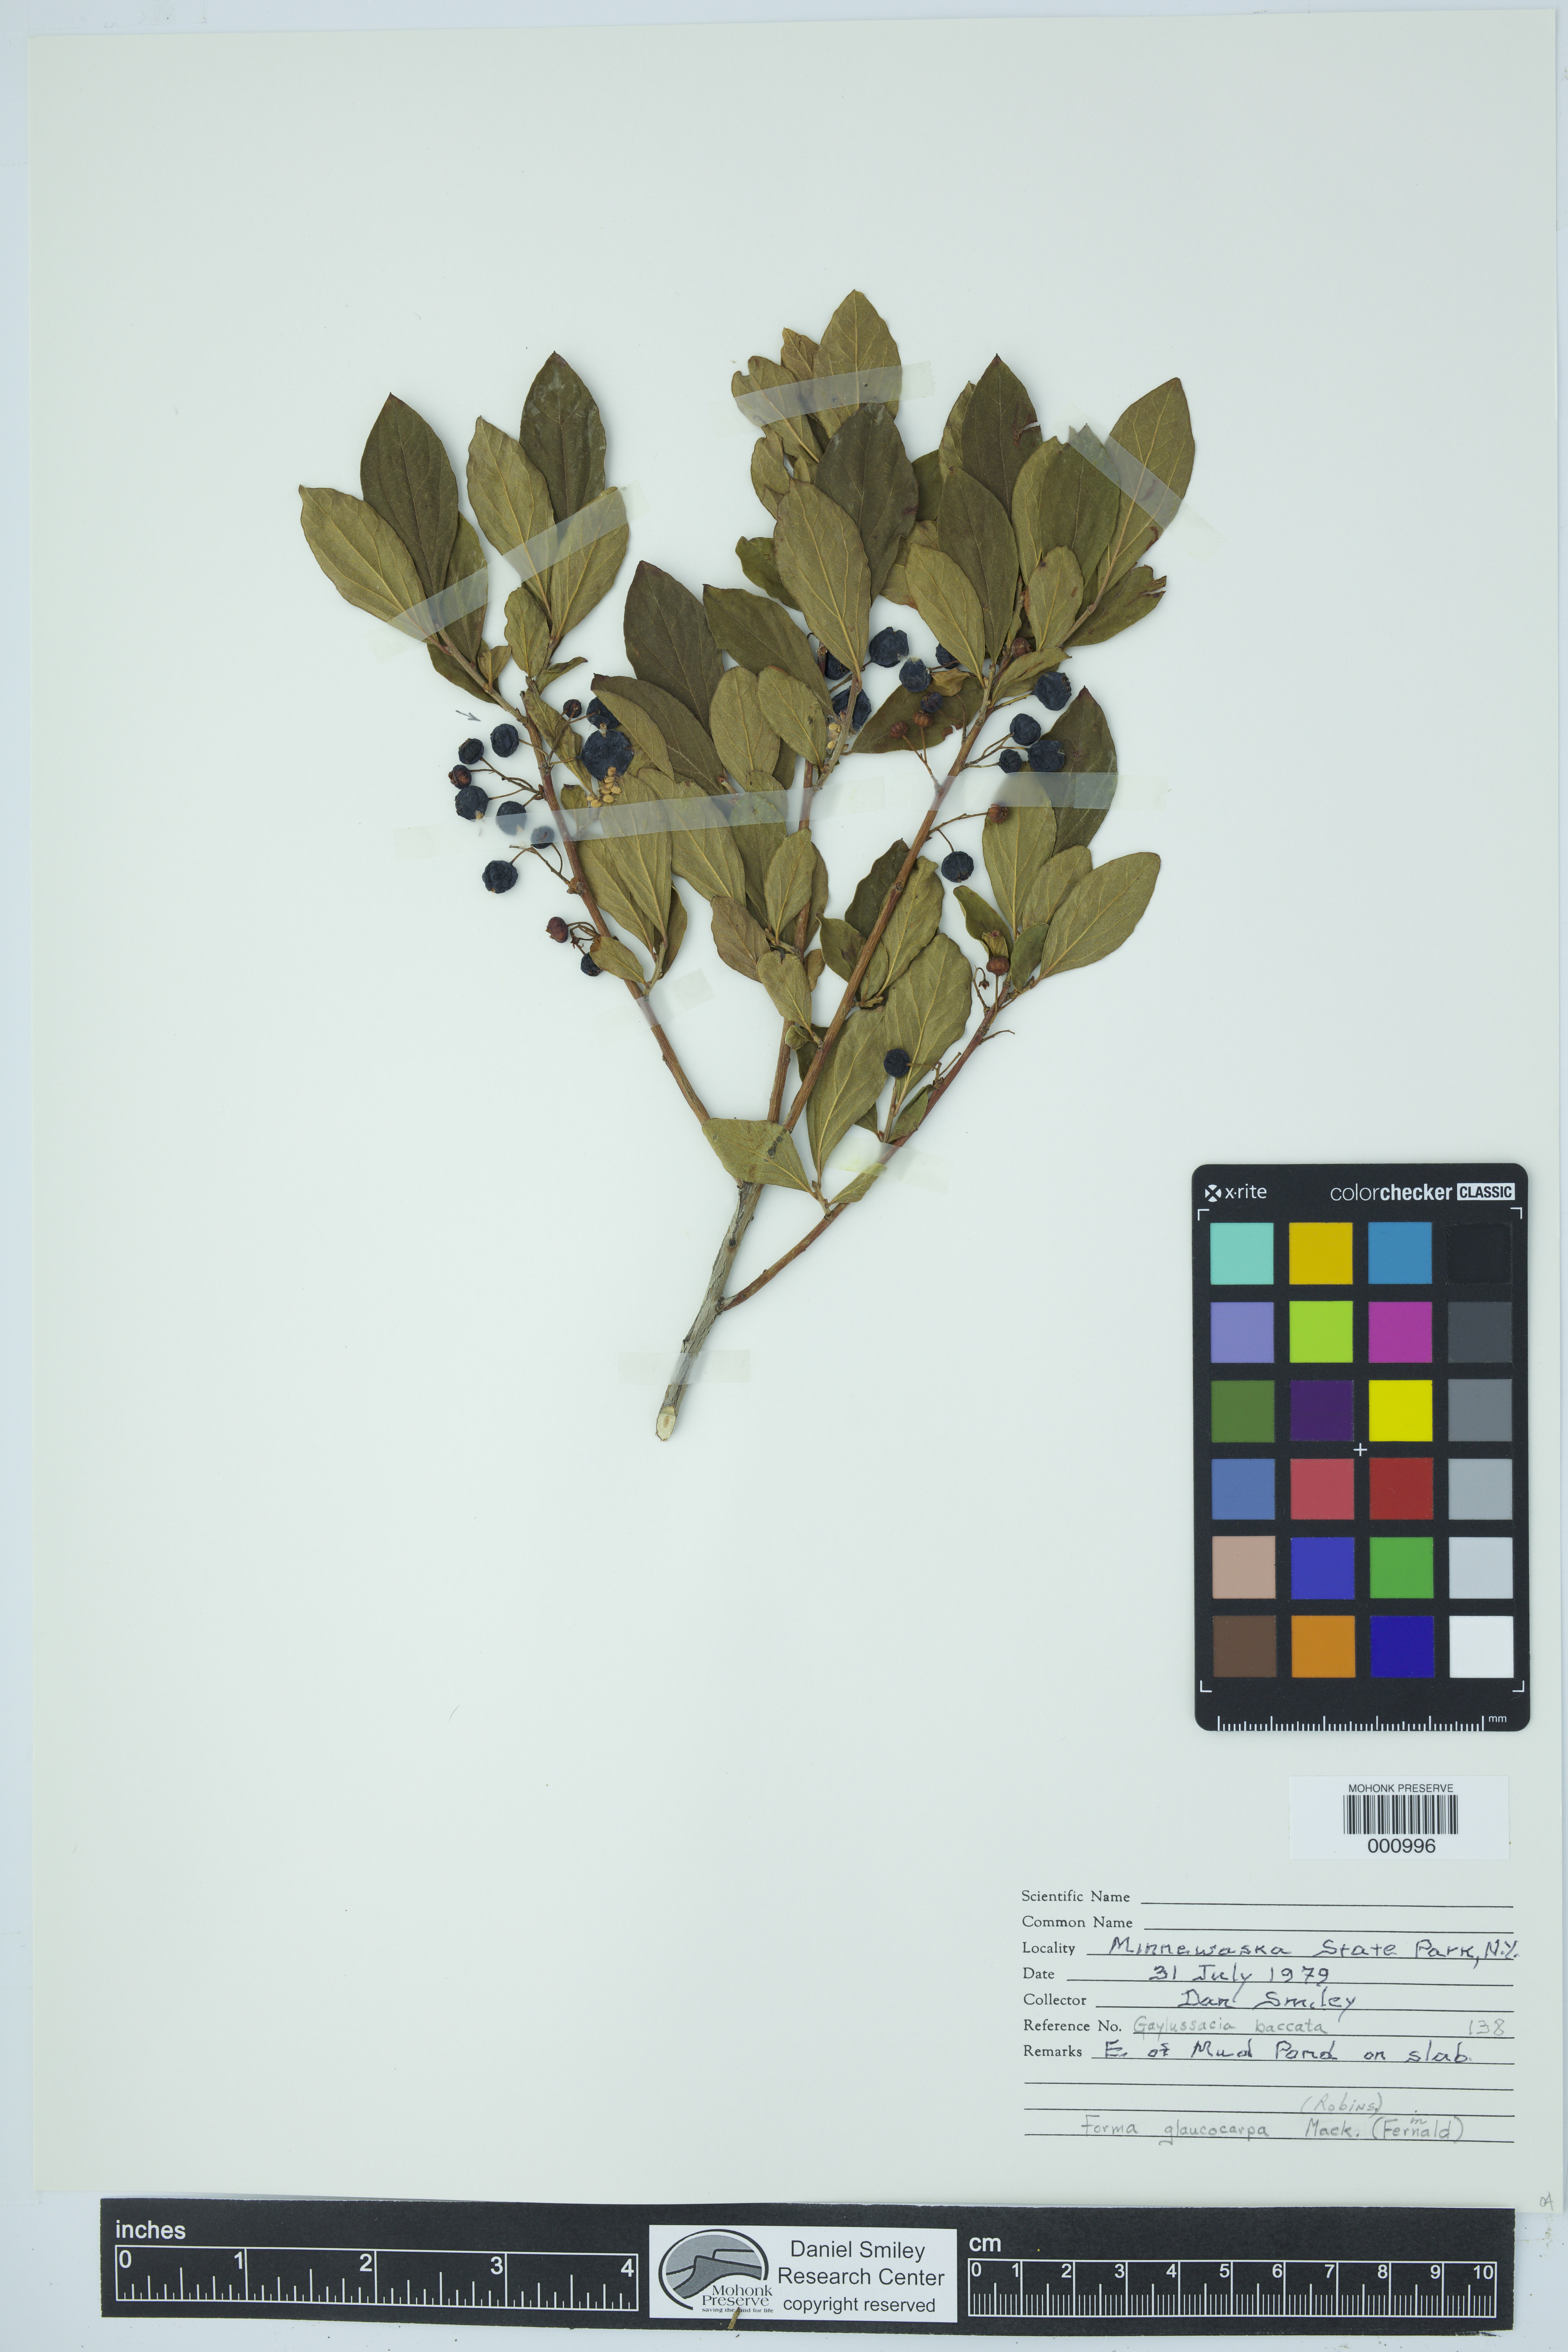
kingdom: Plantae
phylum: Tracheophyta
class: Magnoliopsida
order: Ericales
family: Ericaceae
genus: Gaylussacia
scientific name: Gaylussacia baccata
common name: Black huckleberry
